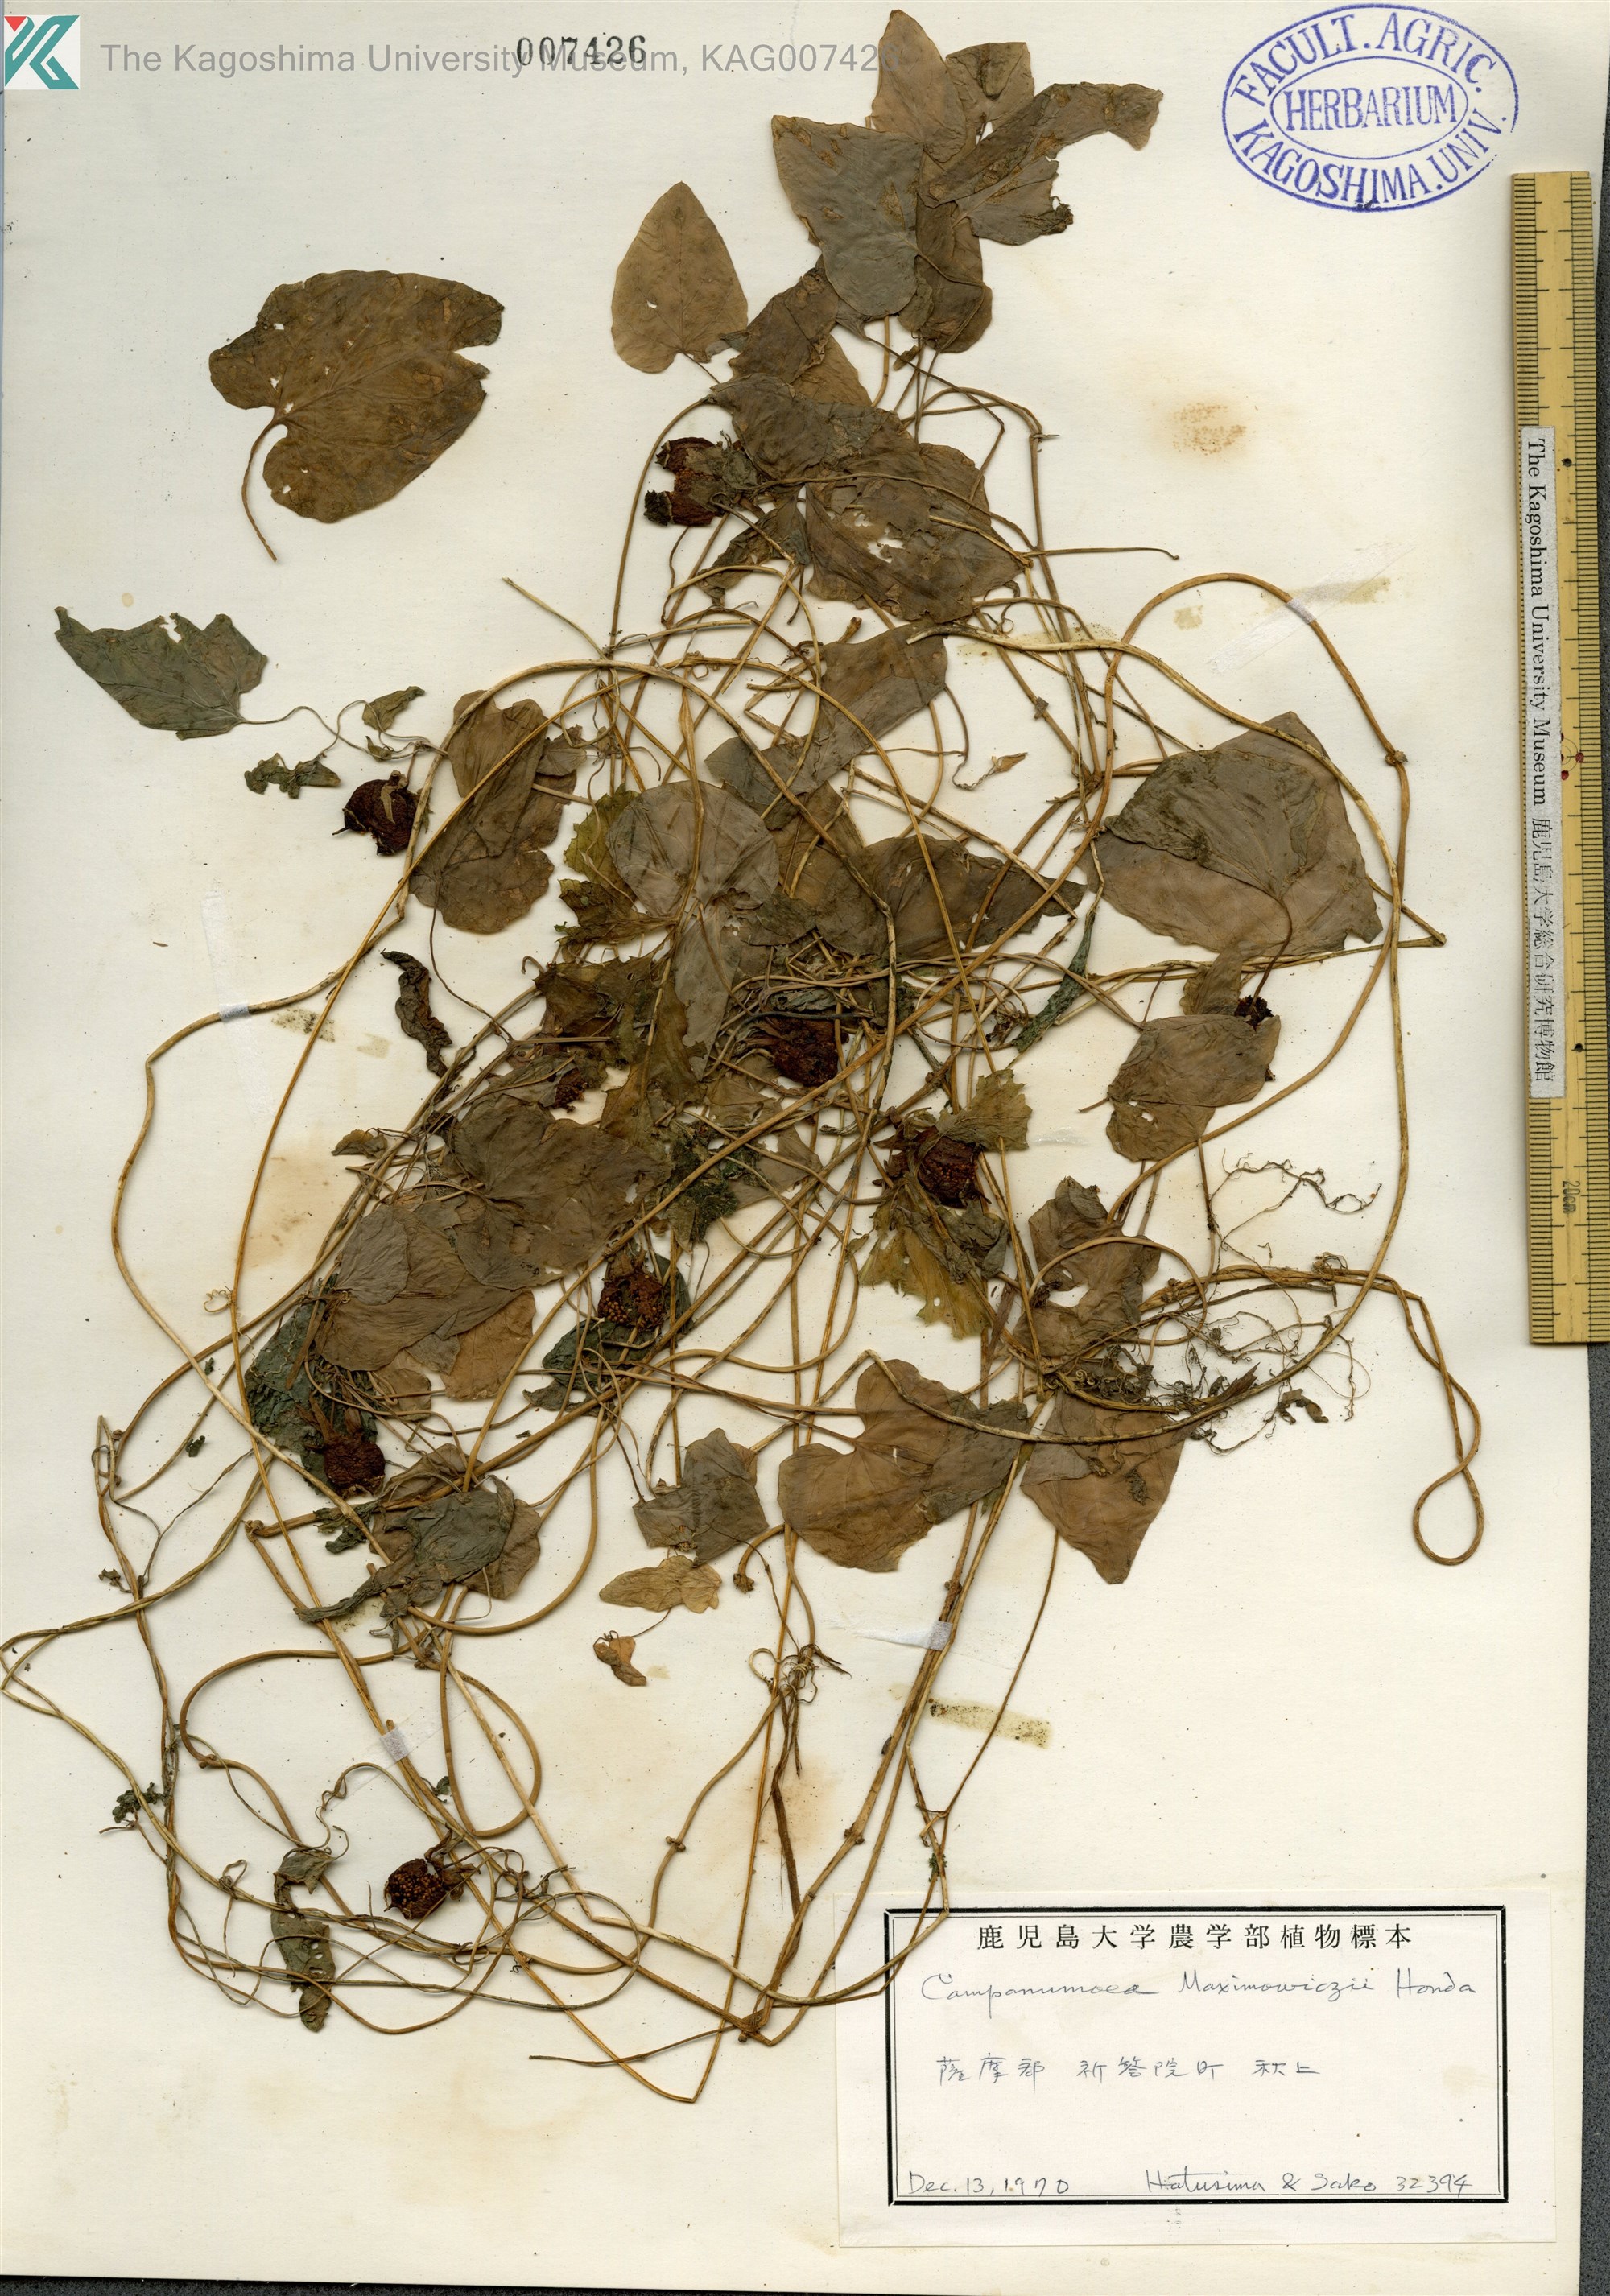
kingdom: Plantae
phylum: Tracheophyta
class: Magnoliopsida
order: Asterales
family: Campanulaceae
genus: Codonopsis
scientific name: Codonopsis javanica
